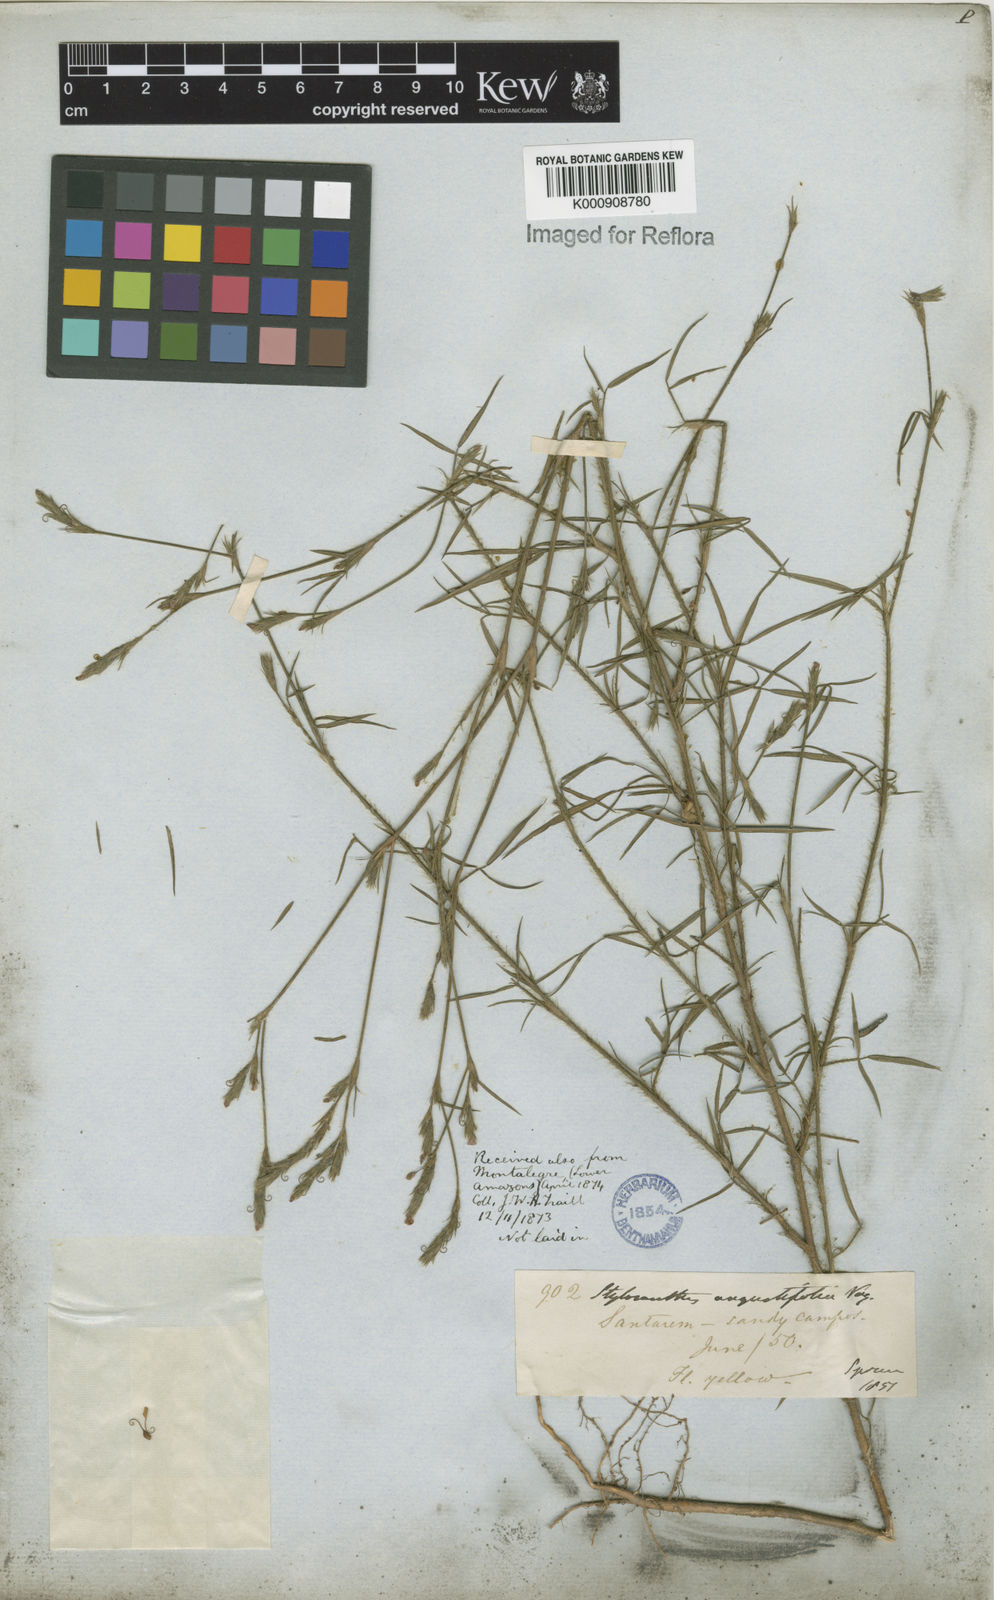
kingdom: Plantae
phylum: Tracheophyta
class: Magnoliopsida
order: Fabales
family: Fabaceae
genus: Stylosanthes
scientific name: Stylosanthes angustifolia
